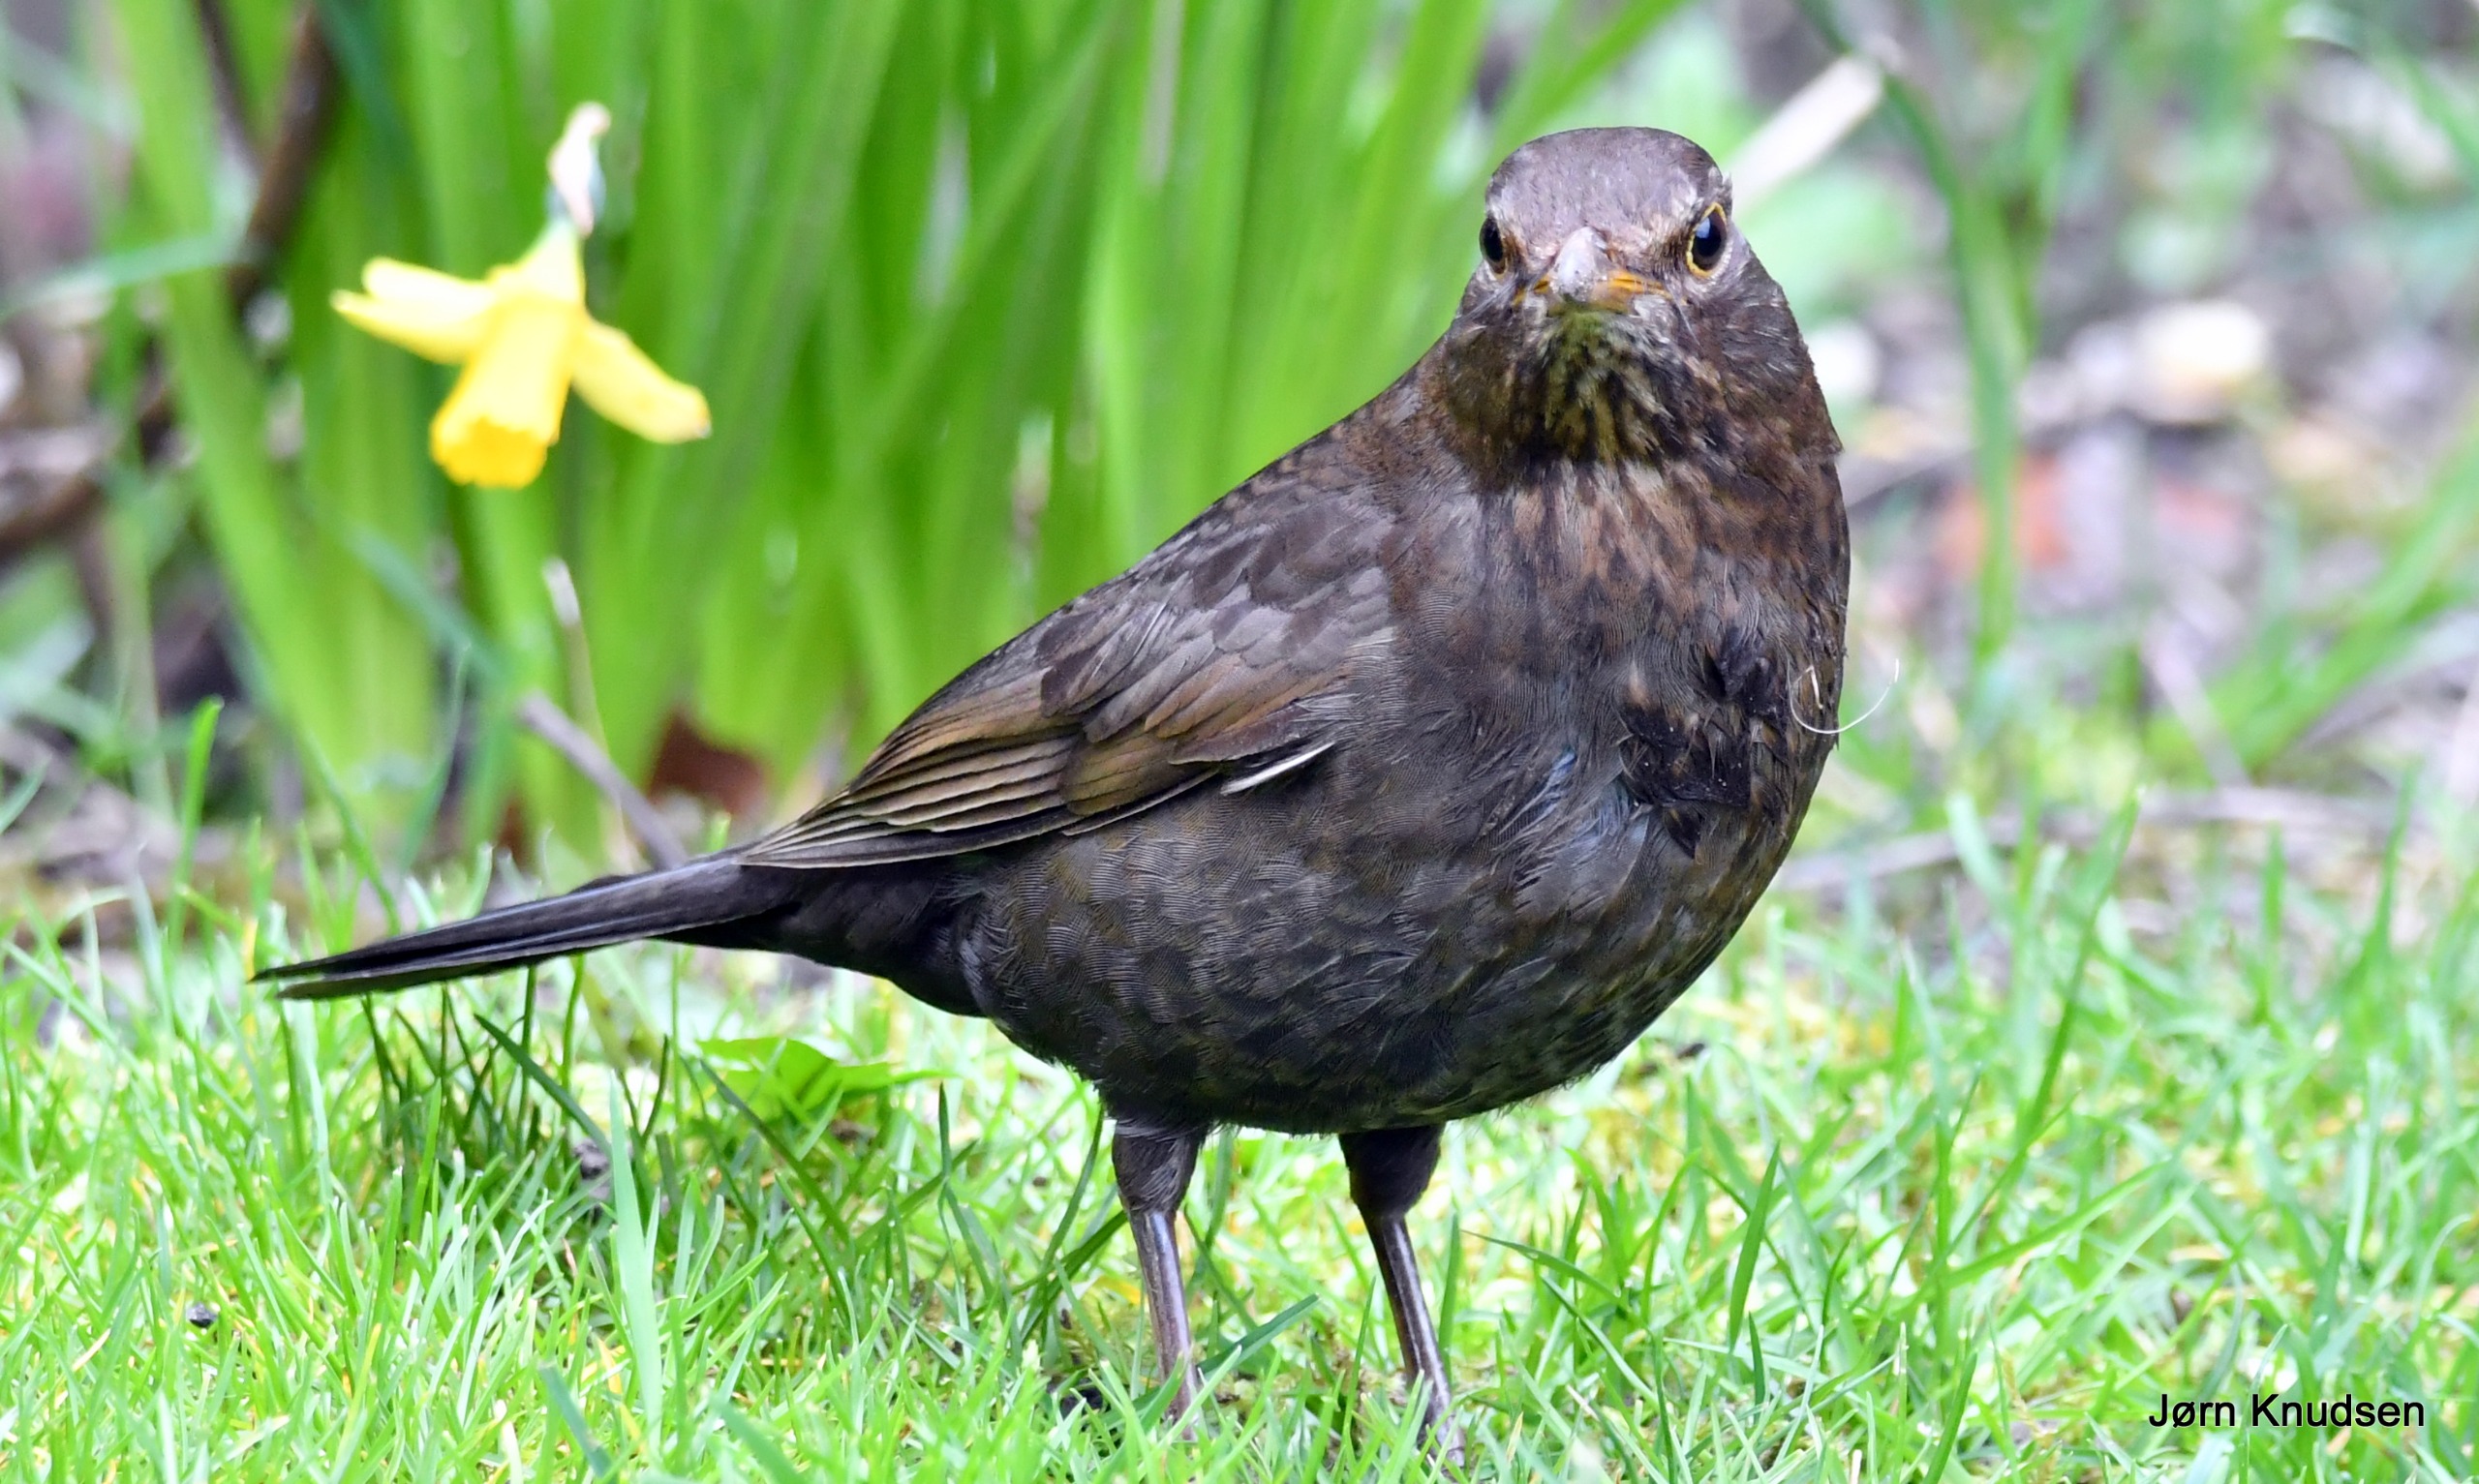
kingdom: Animalia
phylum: Chordata
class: Aves
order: Passeriformes
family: Turdidae
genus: Turdus
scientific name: Turdus merula
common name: Solsort
